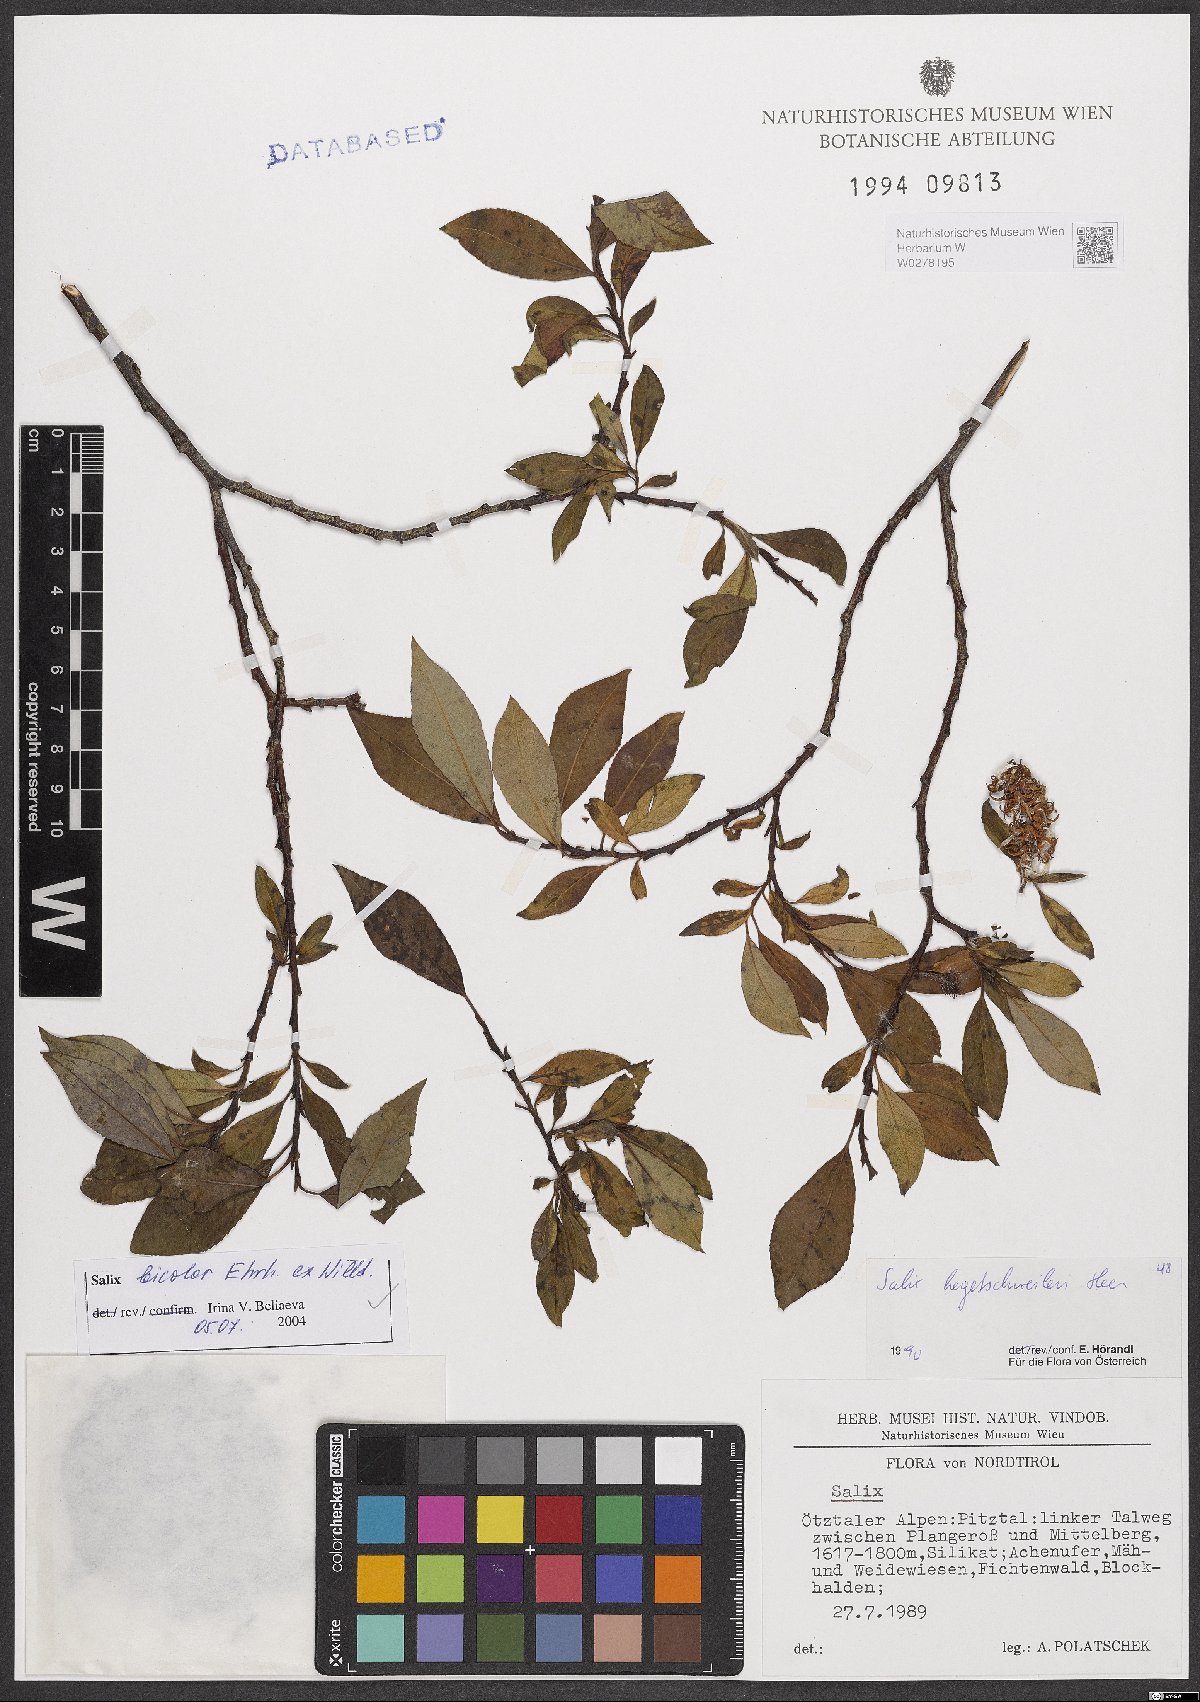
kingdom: Plantae
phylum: Tracheophyta
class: Magnoliopsida
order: Malpighiales
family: Salicaceae
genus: Salix
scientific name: Salix bicolor
